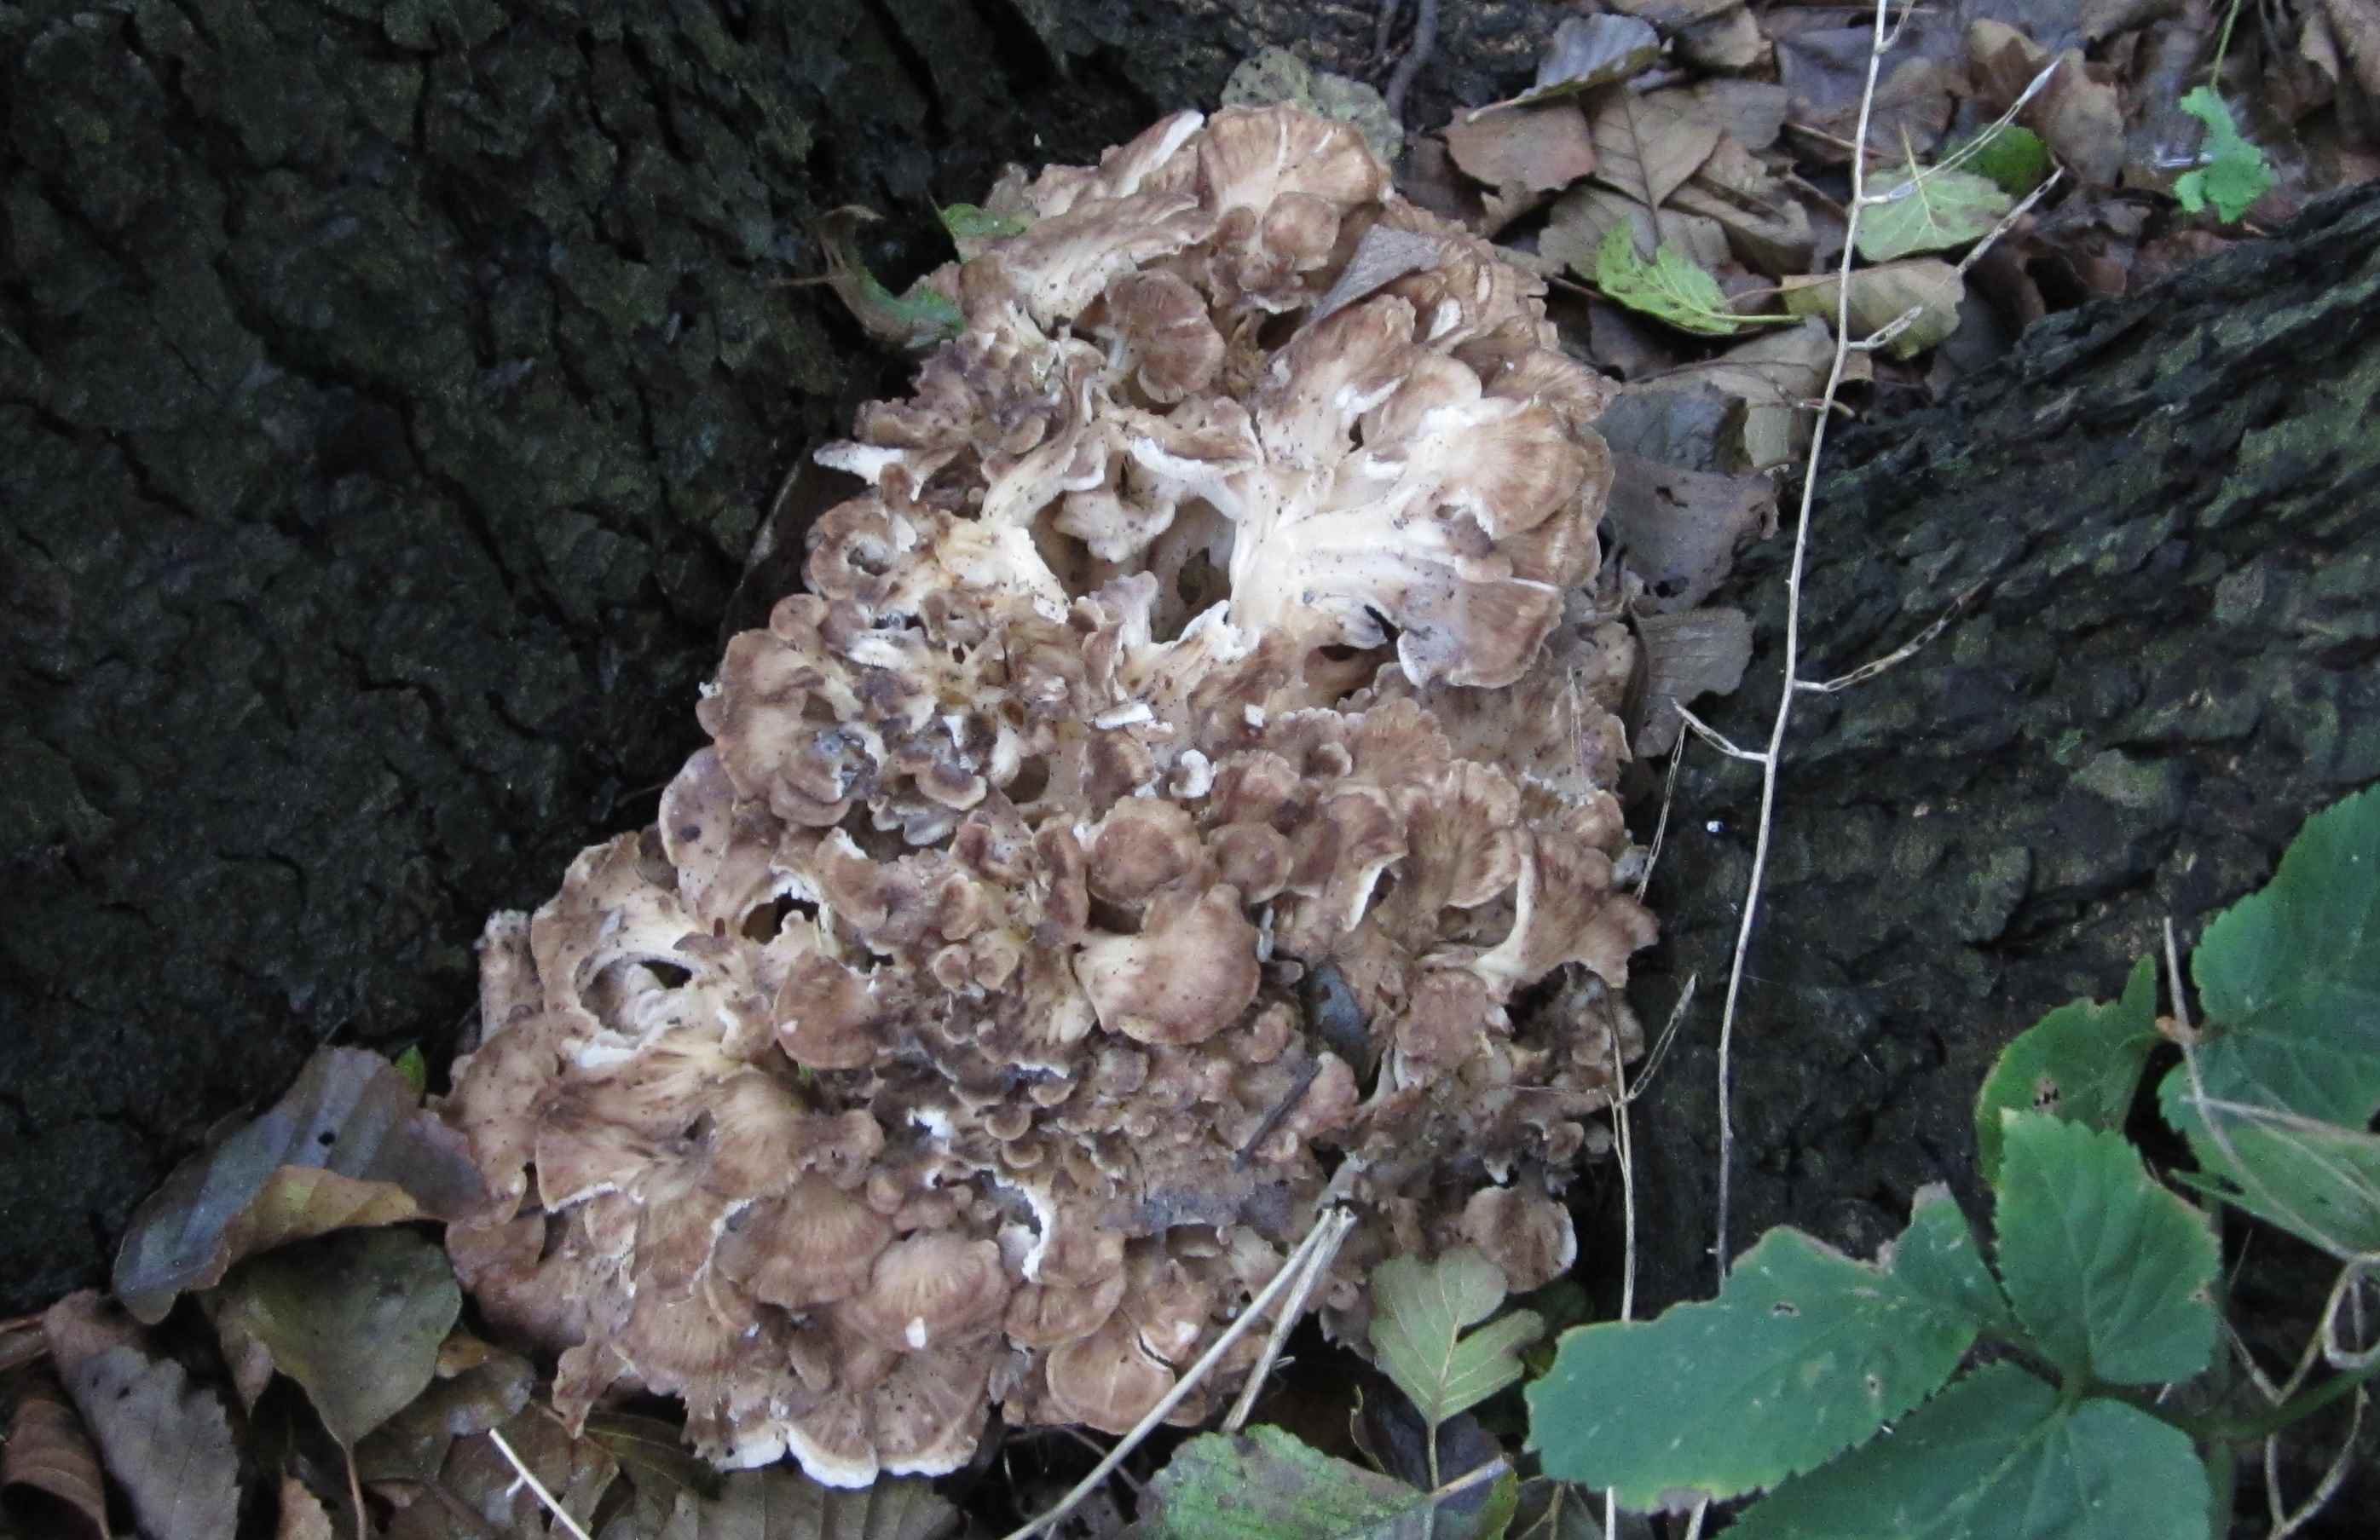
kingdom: Fungi
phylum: Basidiomycota
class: Agaricomycetes
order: Polyporales
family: Grifolaceae
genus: Grifola
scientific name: Grifola frondosa
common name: tueporesvamp
